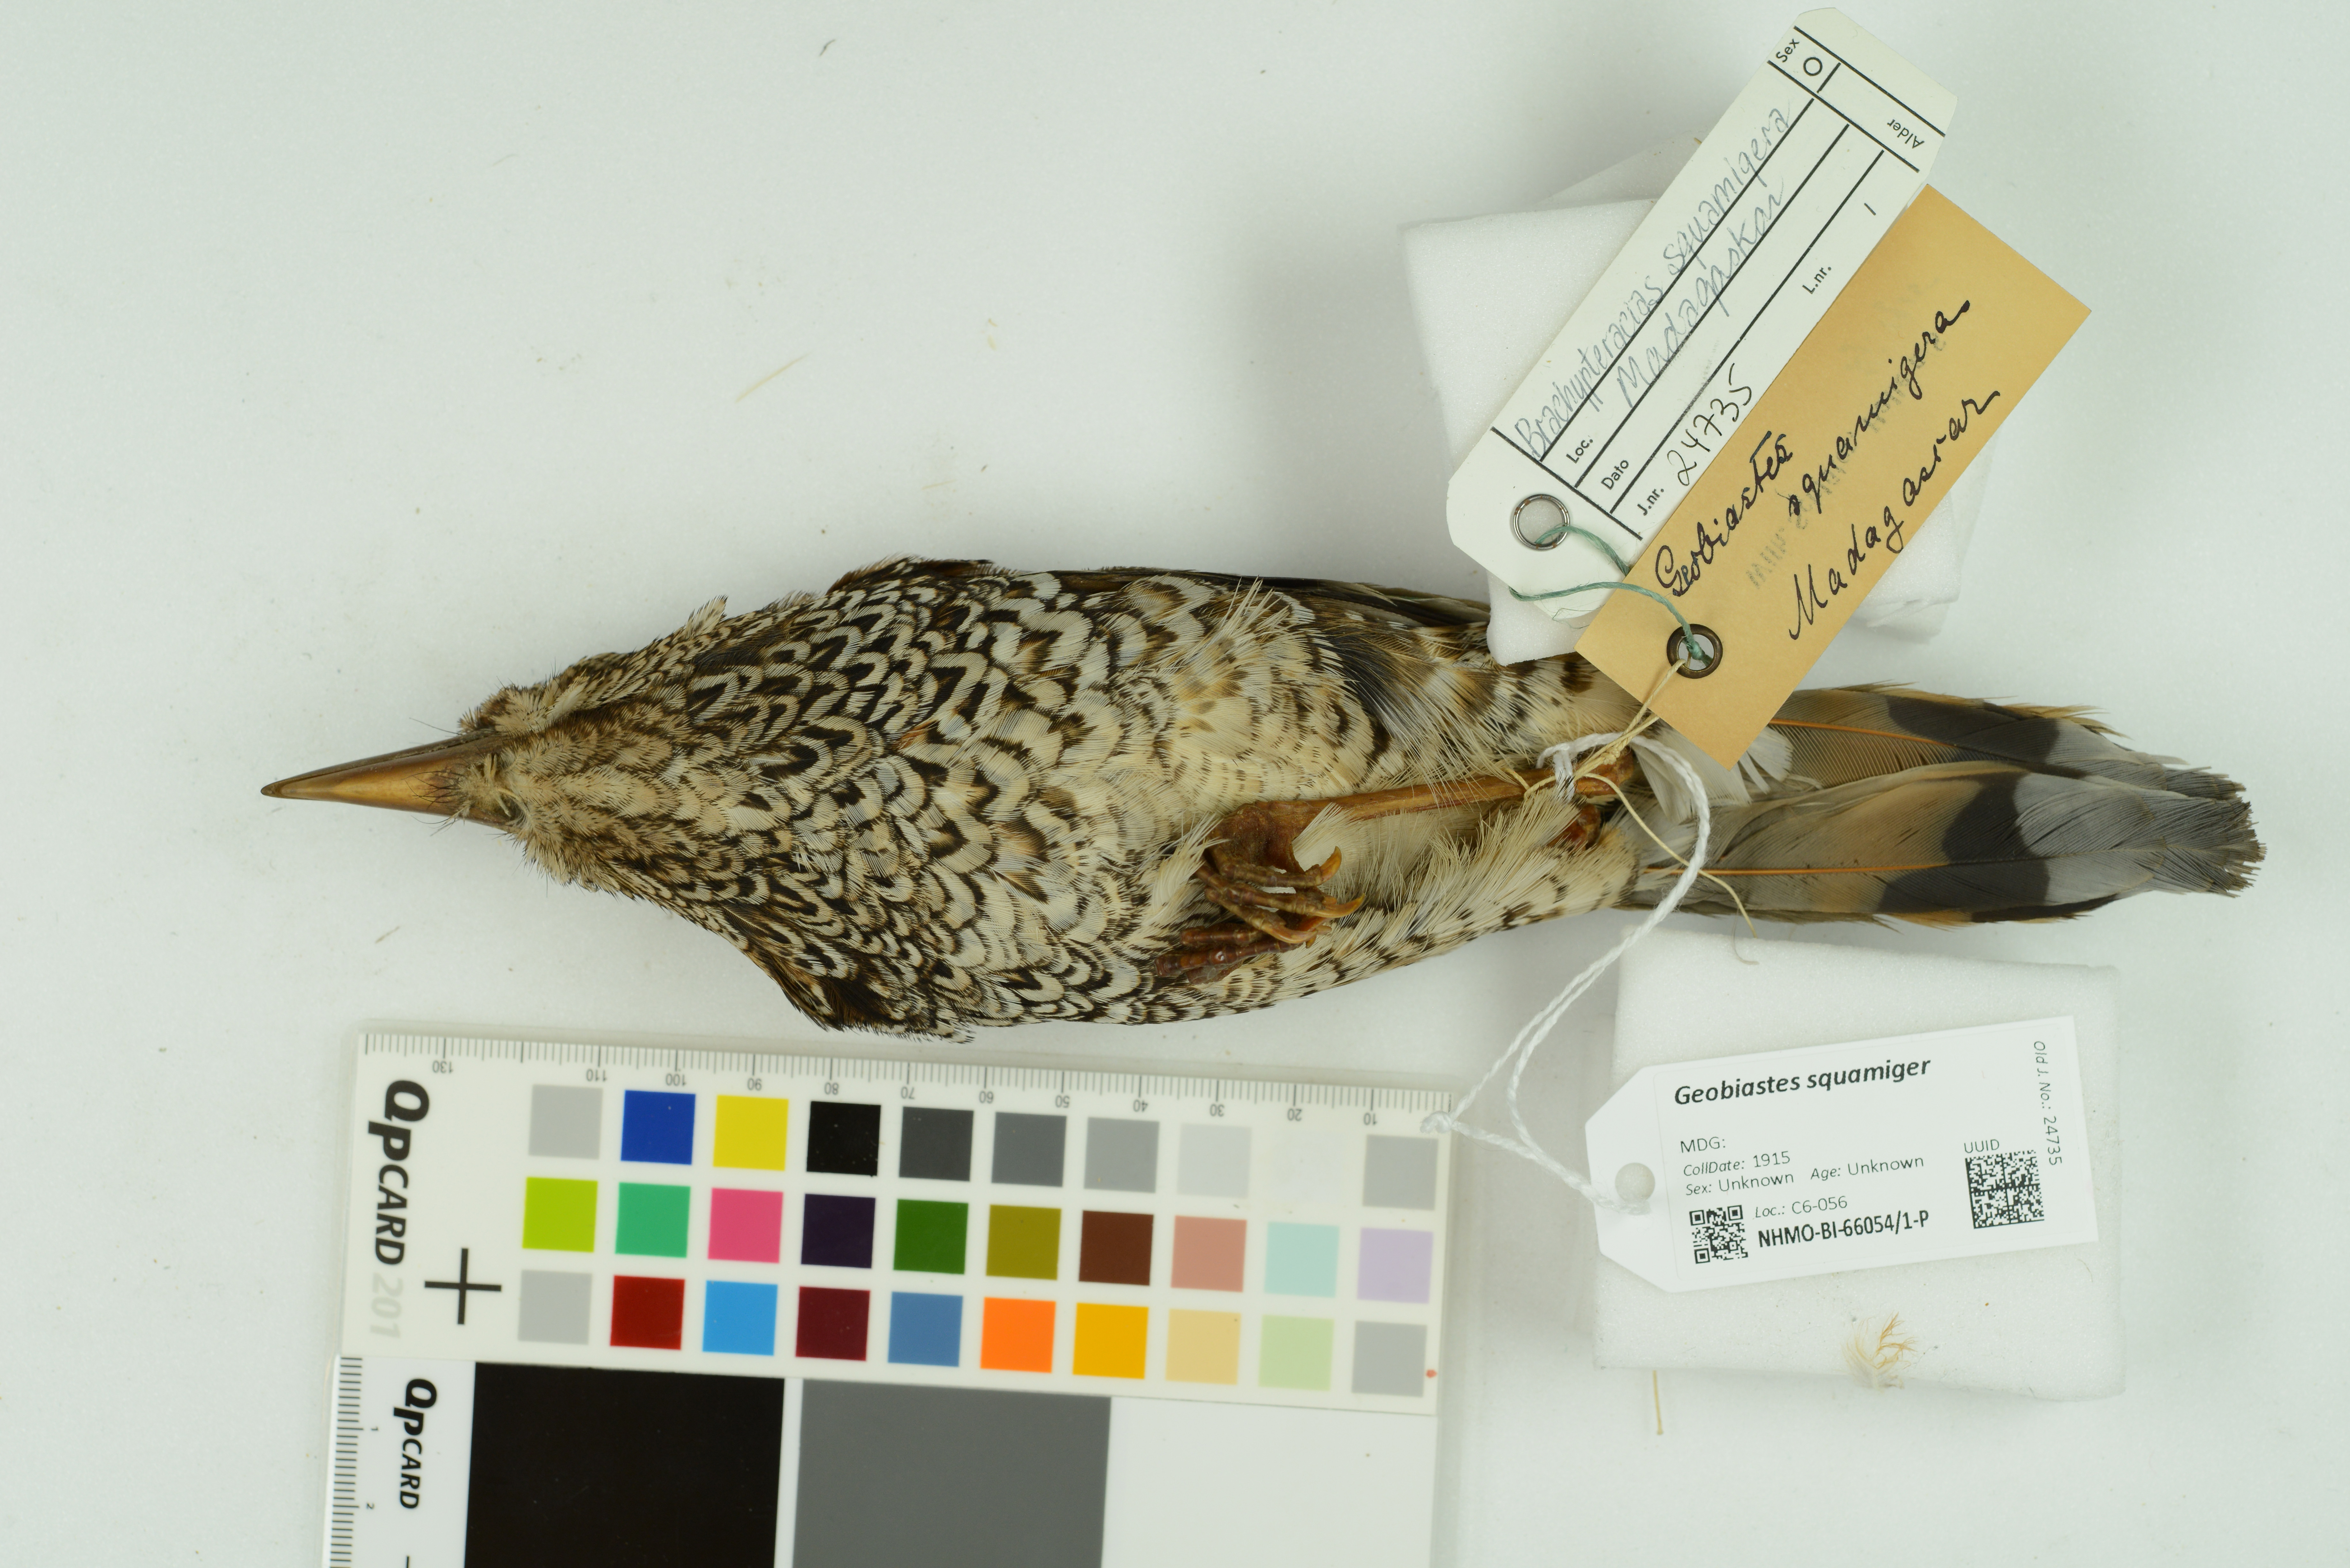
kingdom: Animalia
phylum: Chordata
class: Aves
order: Coraciiformes
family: Brachypteraciidae
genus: Geobiastes
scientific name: Geobiastes squamiger
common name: Scaly ground-roller
